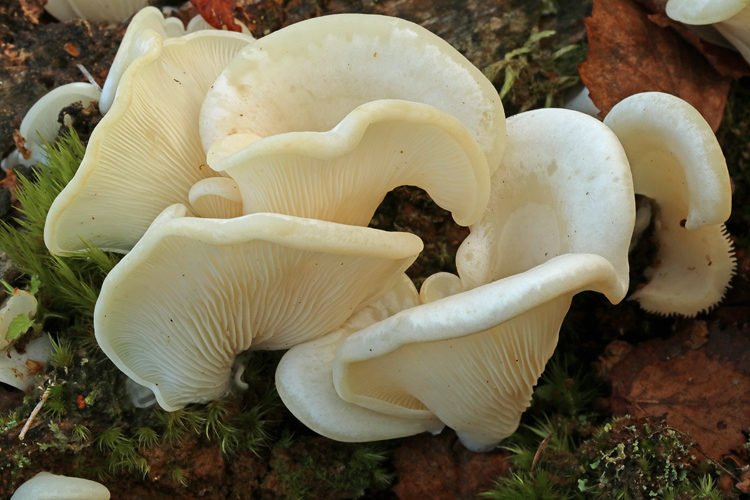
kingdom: Fungi
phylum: Basidiomycota
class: Agaricomycetes
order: Agaricales
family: Marasmiaceae
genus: Pleurocybella
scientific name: Pleurocybella porrigens
